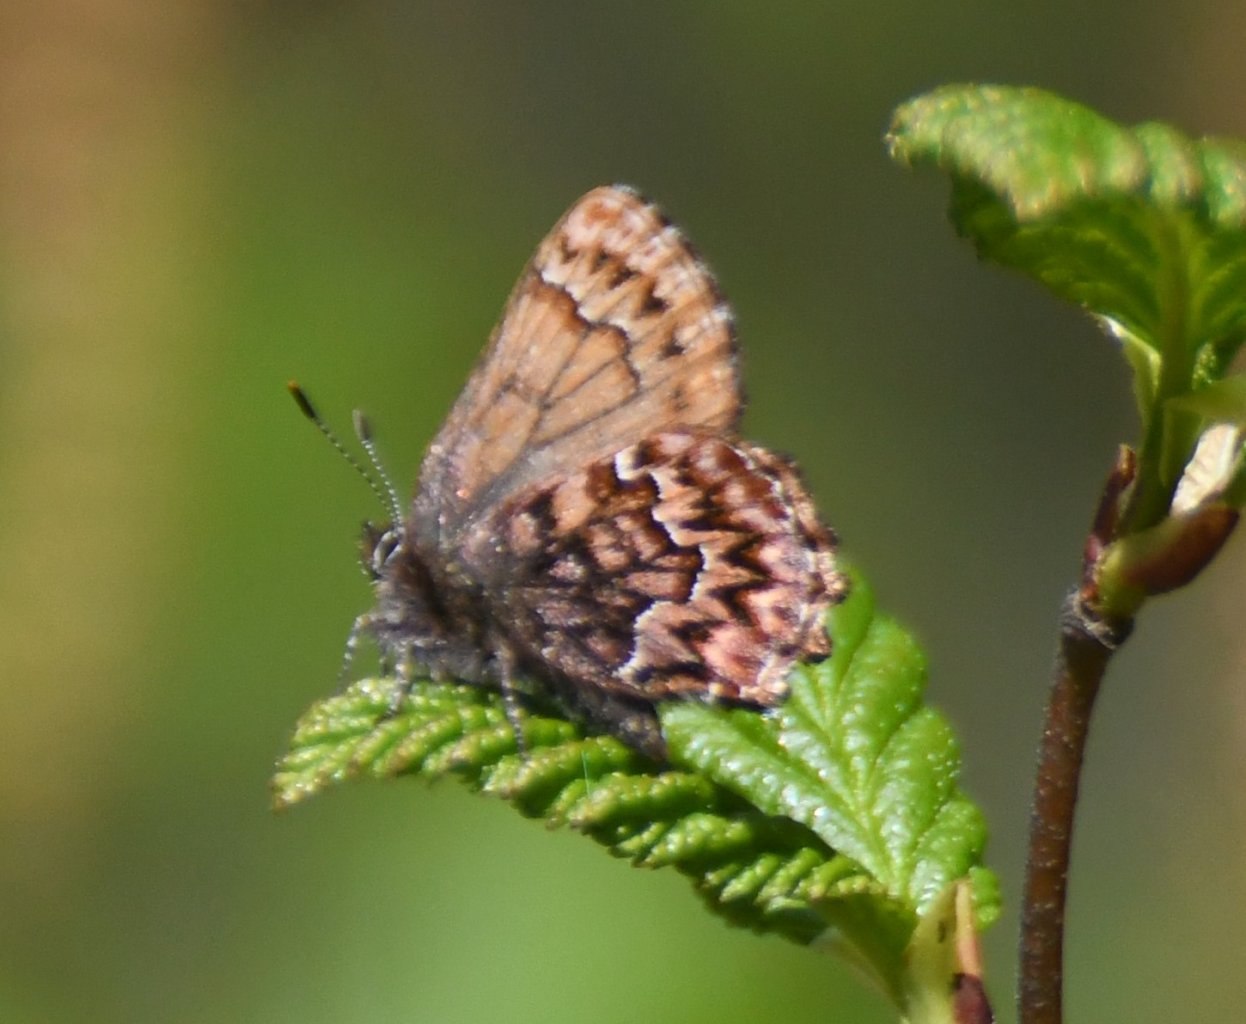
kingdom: Animalia
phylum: Arthropoda
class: Insecta
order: Lepidoptera
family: Lycaenidae
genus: Incisalia
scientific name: Incisalia eryphon
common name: Western Pine Elfin
